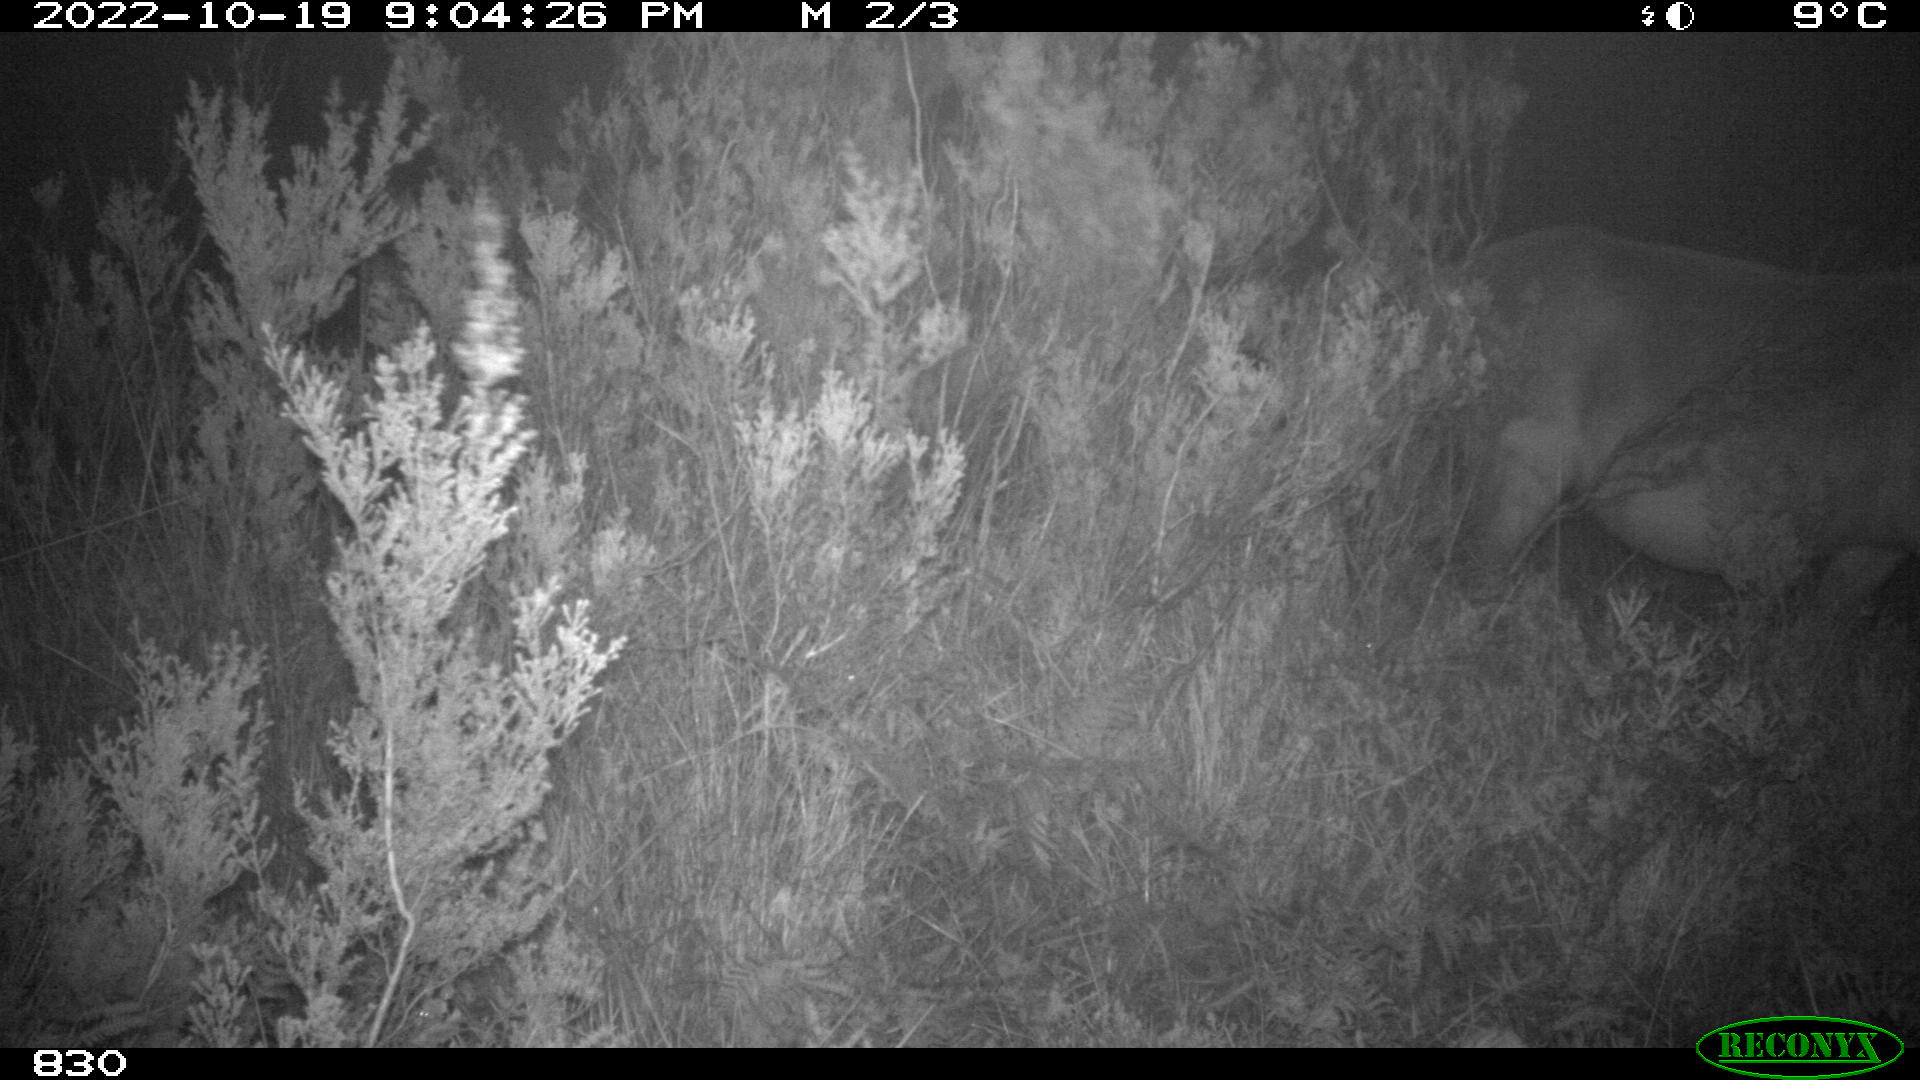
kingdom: Animalia
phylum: Chordata
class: Mammalia
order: Artiodactyla
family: Bovidae
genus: Bos
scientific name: Bos taurus
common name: Domesticated cattle
